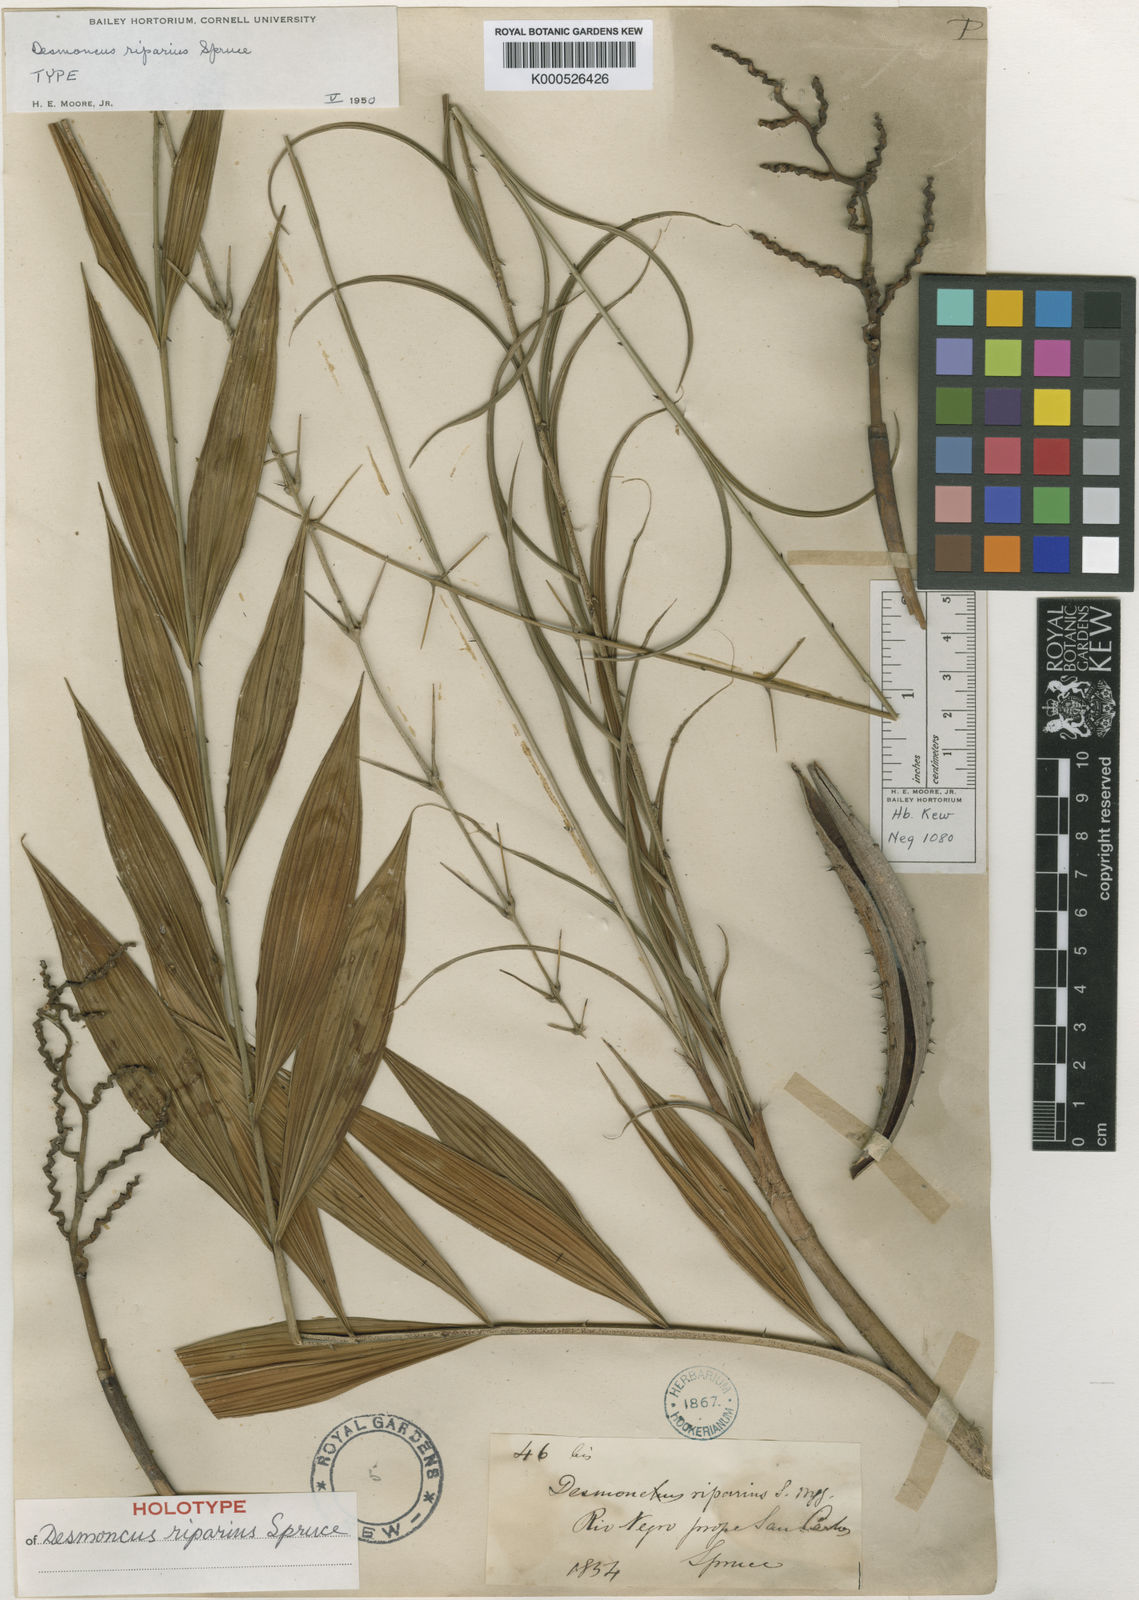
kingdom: Plantae
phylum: Tracheophyta
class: Liliopsida
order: Arecales
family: Arecaceae
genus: Desmoncus
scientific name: Desmoncus polyacanthos
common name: Suriname bramble palm
